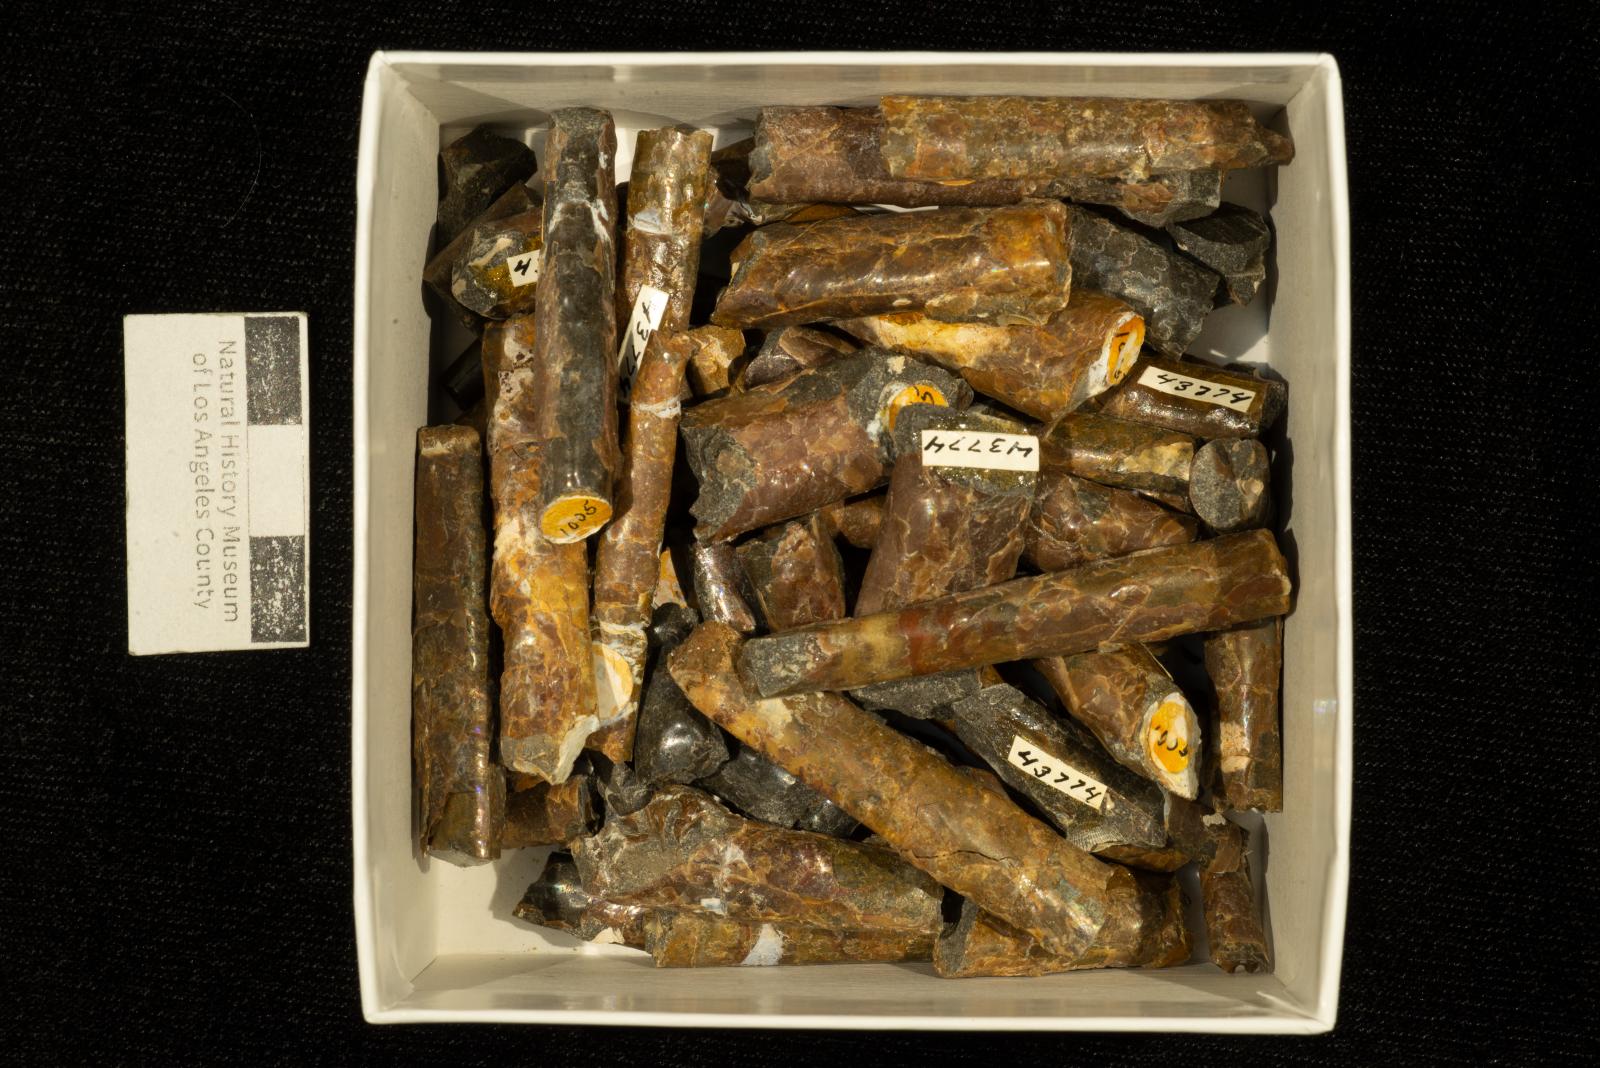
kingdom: Animalia
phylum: Mollusca
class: Cephalopoda
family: Baculitidae
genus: Baculites
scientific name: Baculites boulei
